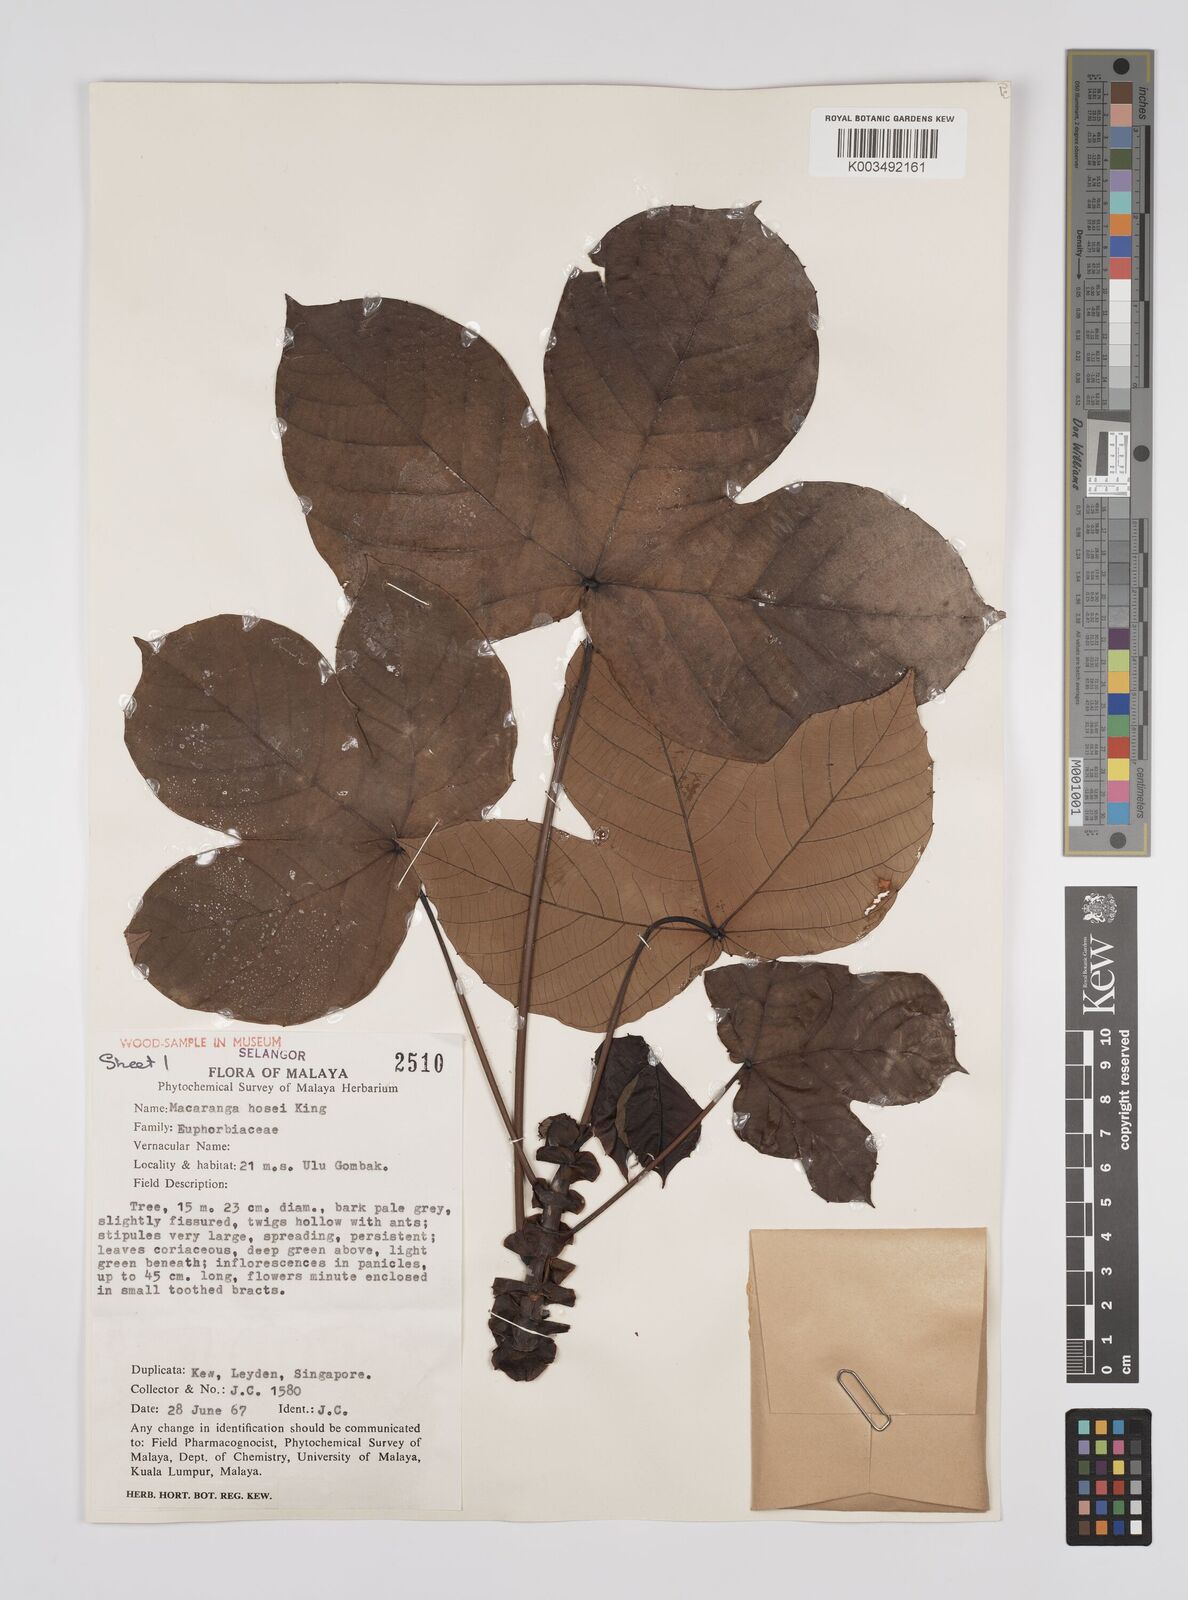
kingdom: Plantae
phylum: Tracheophyta
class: Magnoliopsida
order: Malpighiales
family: Euphorbiaceae
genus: Macaranga
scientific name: Macaranga hosei
